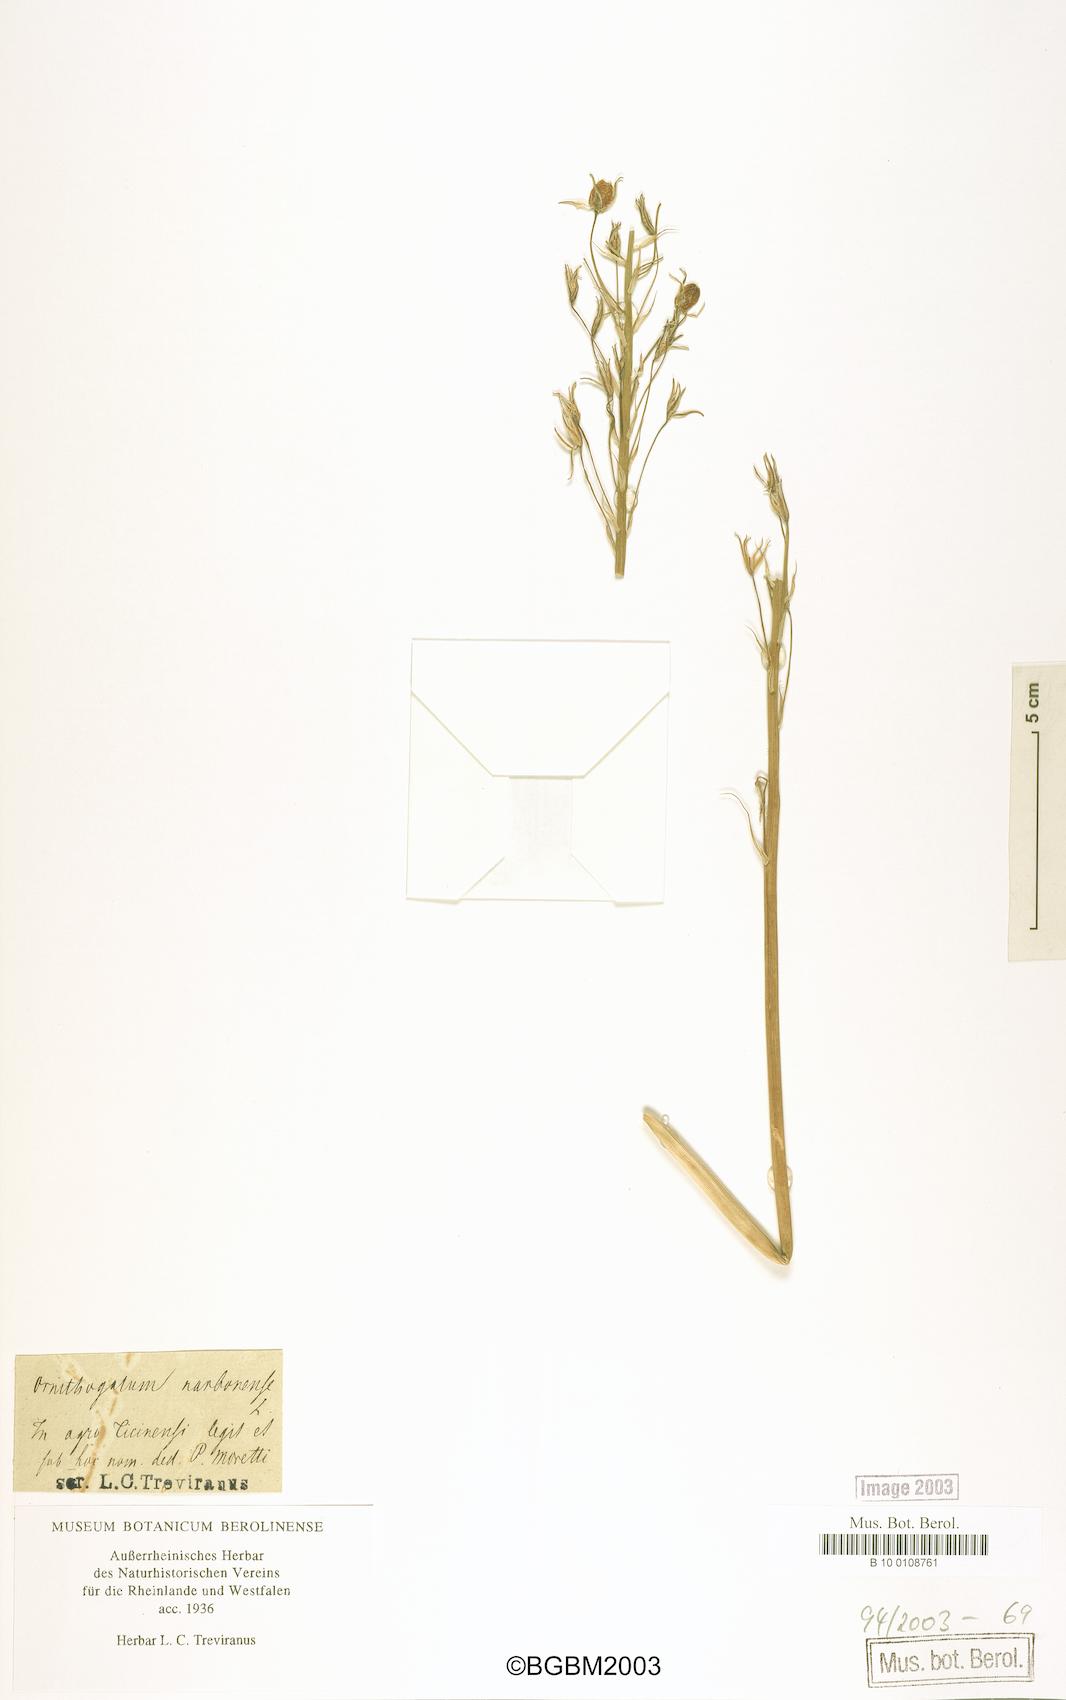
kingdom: Plantae
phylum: Tracheophyta
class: Liliopsida
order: Asparagales
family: Asparagaceae
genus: Ornithogalum
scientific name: Ornithogalum narbonense
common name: Bath-asparagus
